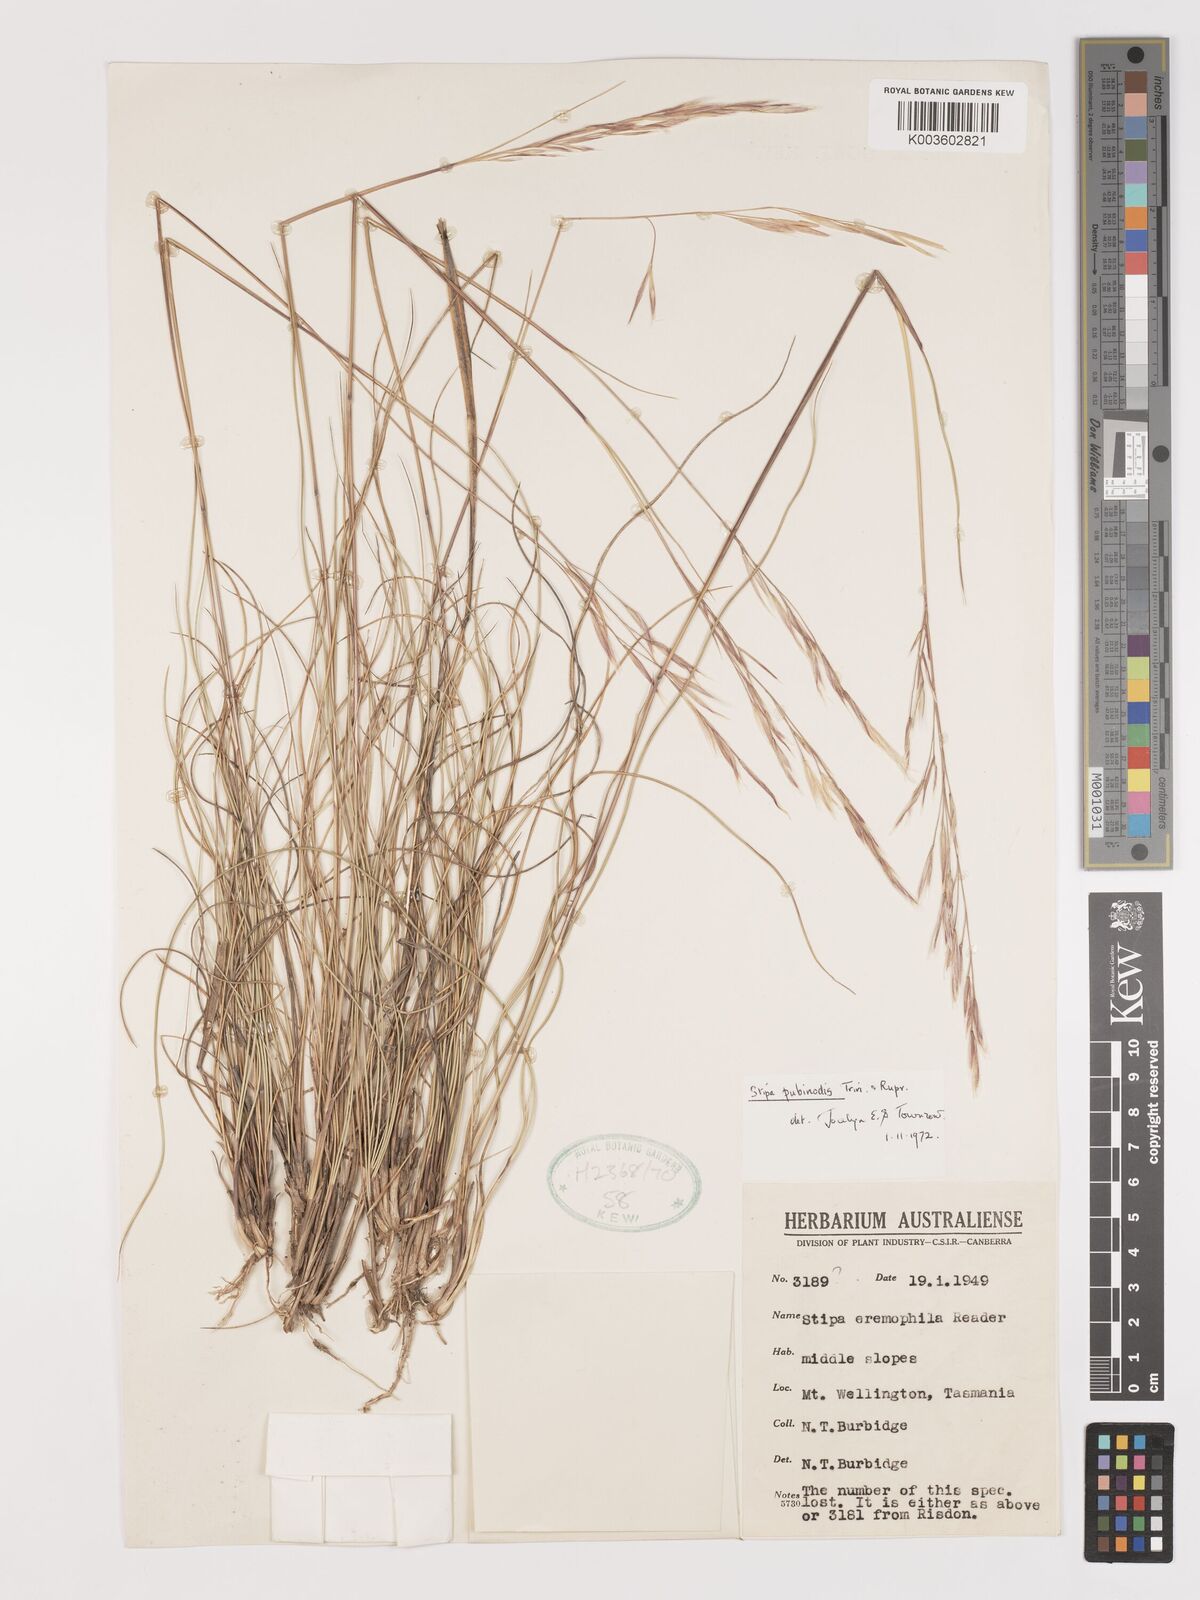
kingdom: Plantae
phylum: Tracheophyta
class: Liliopsida
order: Poales
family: Poaceae
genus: Austrostipa
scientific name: Austrostipa pubinodis
